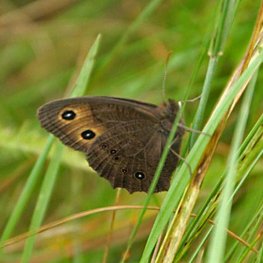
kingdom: Animalia
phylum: Arthropoda
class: Insecta
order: Lepidoptera
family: Nymphalidae
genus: Cercyonis
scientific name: Cercyonis pegala
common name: Common Wood-Nymph
